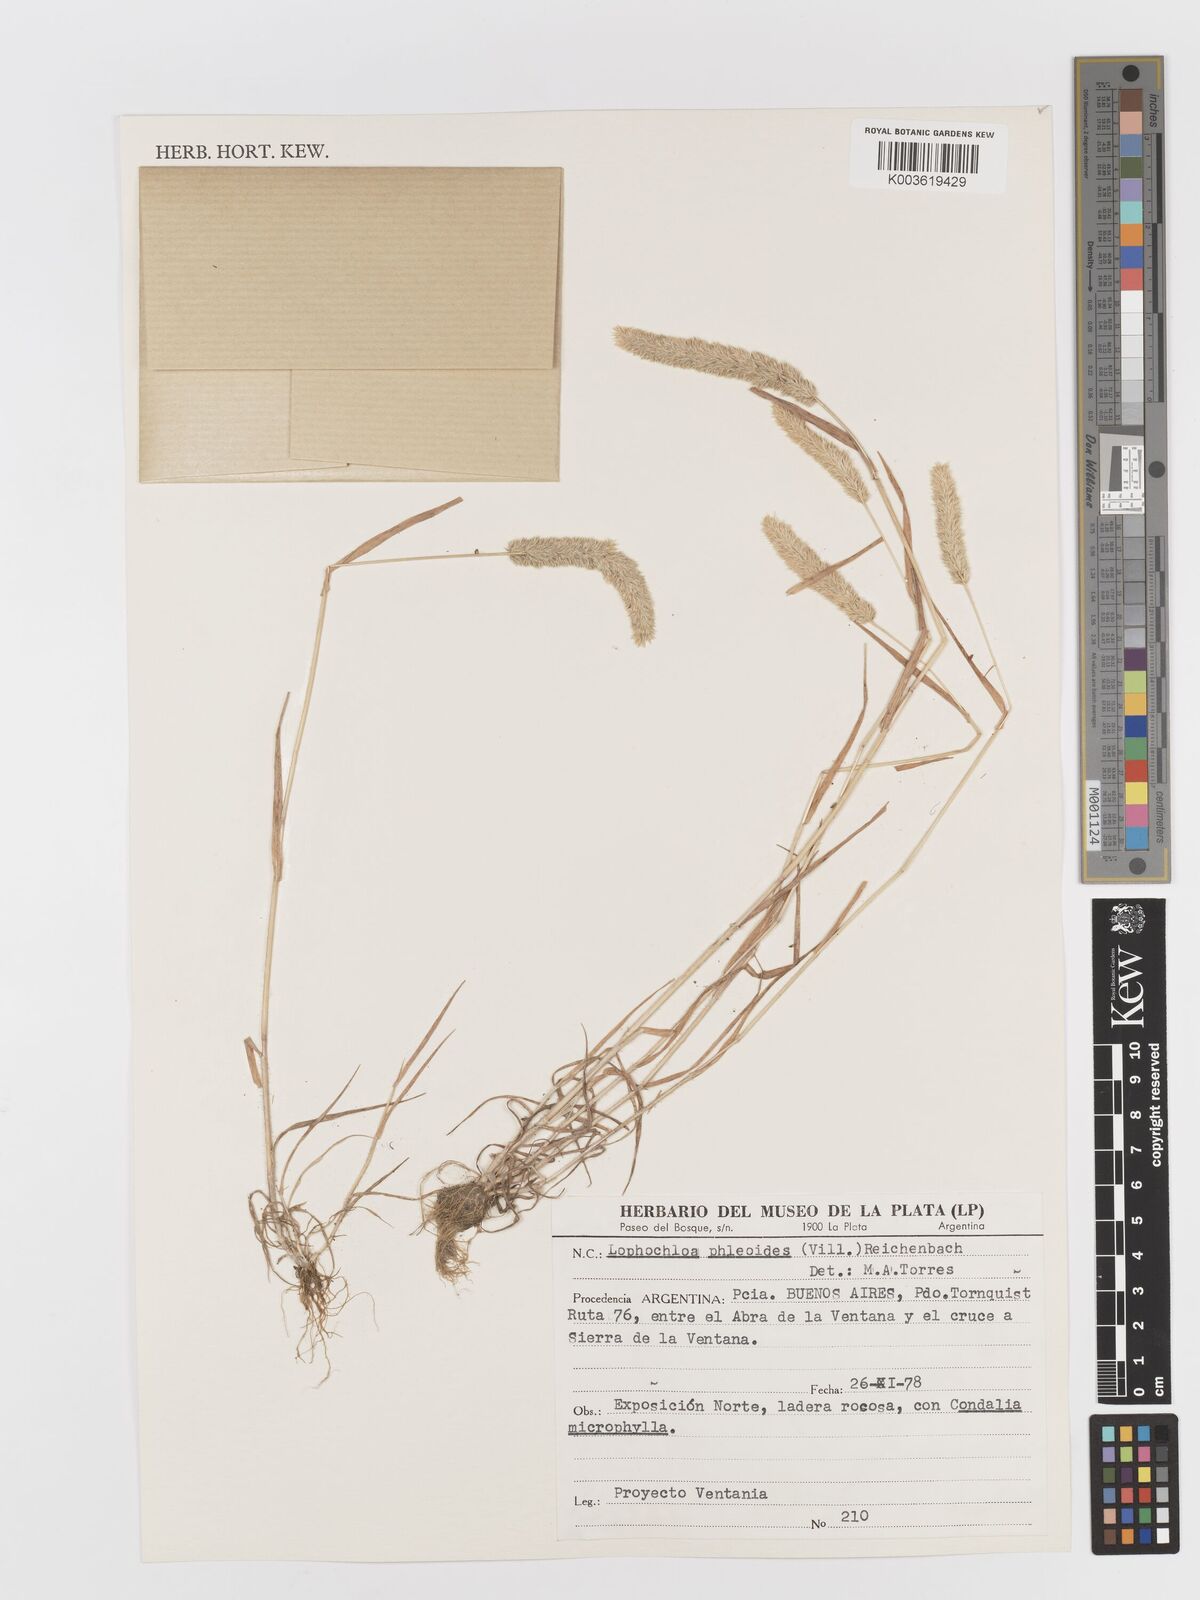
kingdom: Plantae
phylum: Tracheophyta
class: Liliopsida
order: Poales
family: Poaceae
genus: Rostraria
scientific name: Rostraria cristata
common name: Mediterranean hair-grass
